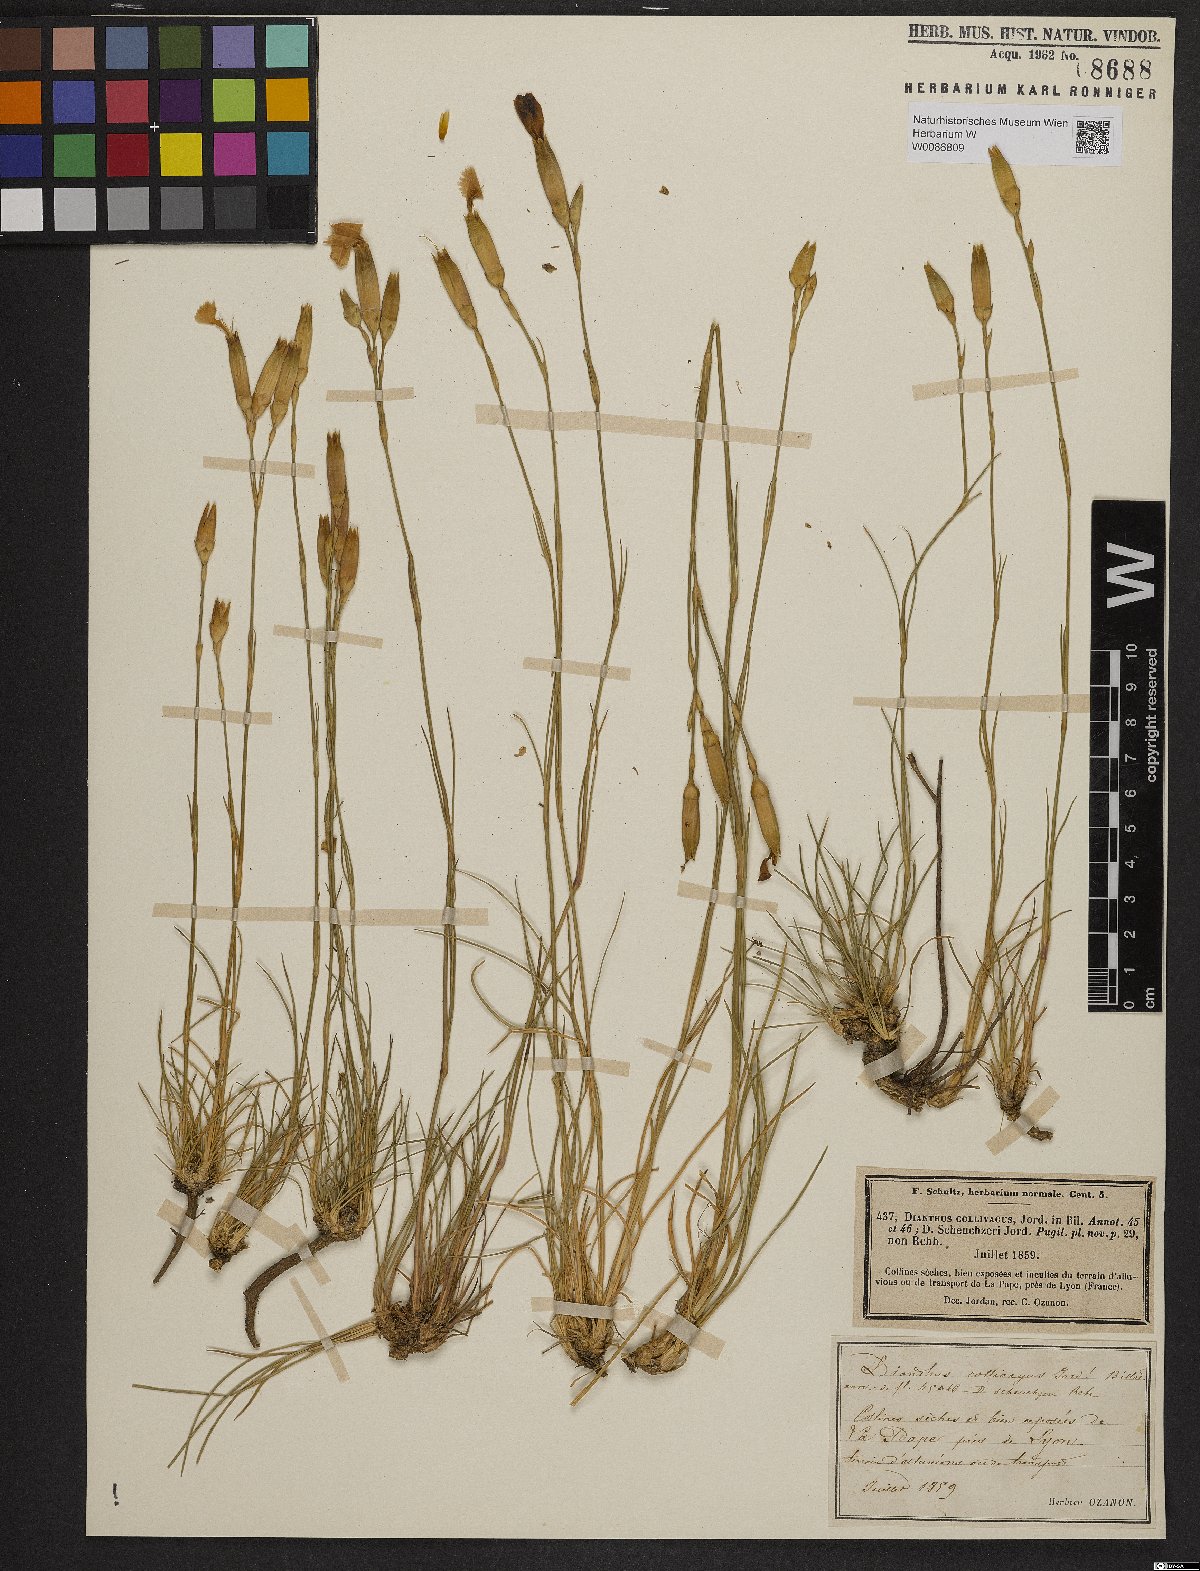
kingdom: Plantae
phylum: Tracheophyta
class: Magnoliopsida
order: Caryophyllales
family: Caryophyllaceae
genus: Dianthus
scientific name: Dianthus sylvestris
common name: Wood pink
